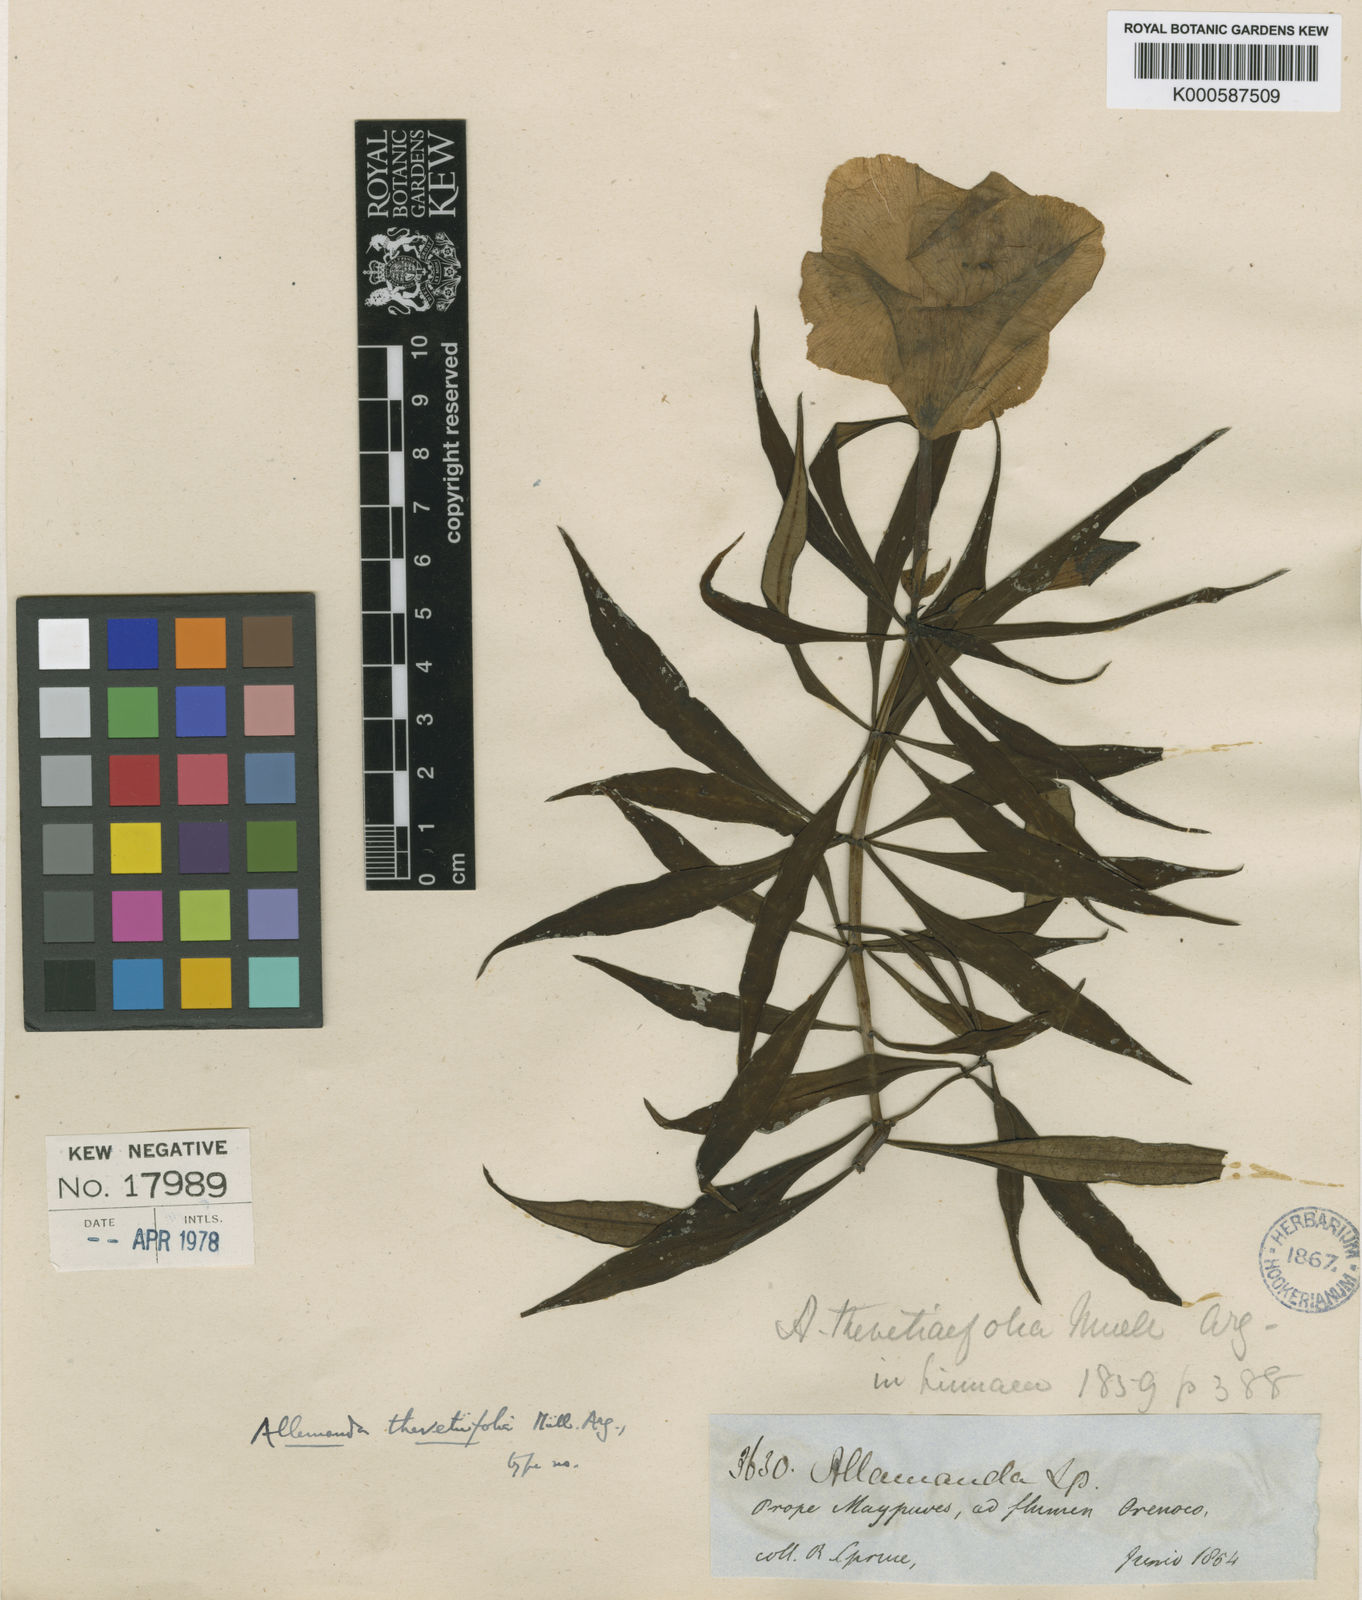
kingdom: Plantae
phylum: Tracheophyta
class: Magnoliopsida
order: Gentianales
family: Apocynaceae
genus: Allamanda
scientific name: Allamanda
